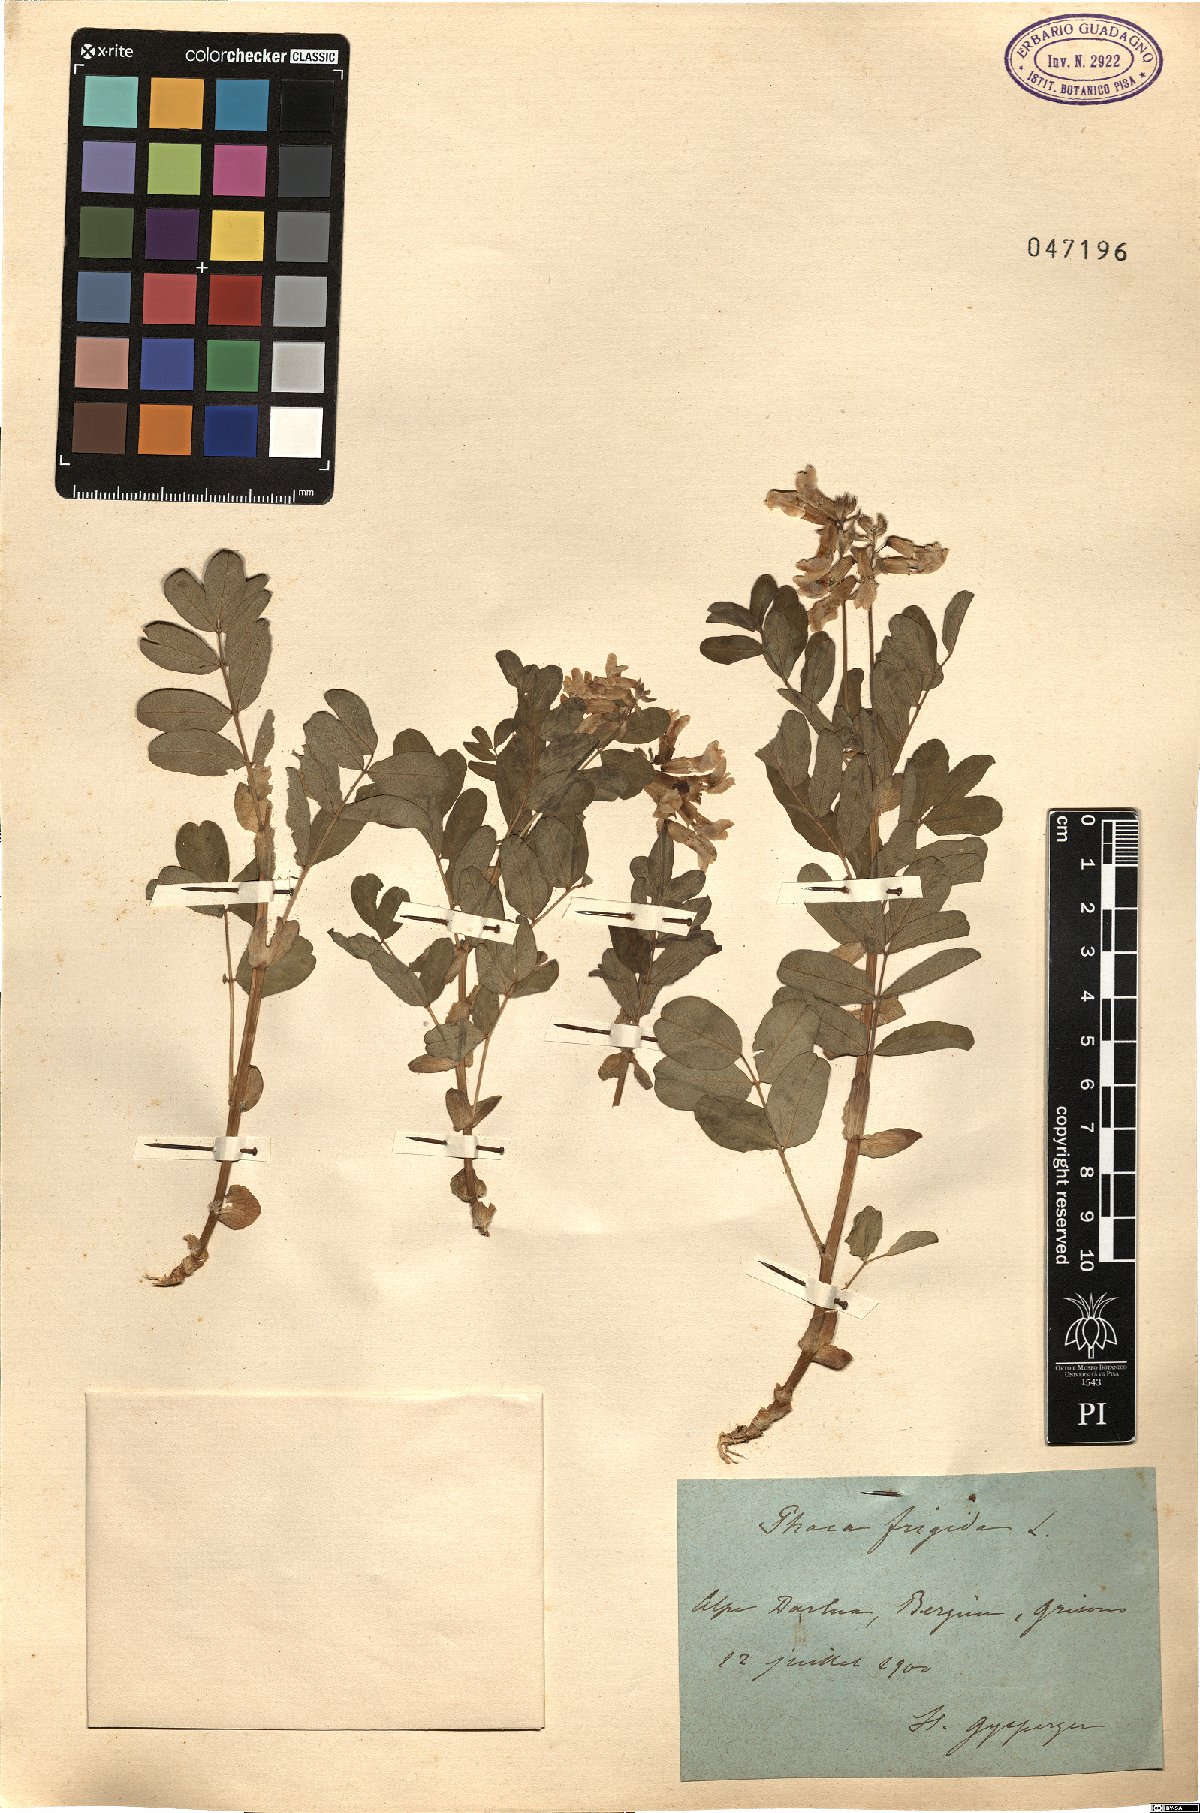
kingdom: Plantae
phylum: Tracheophyta
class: Magnoliopsida
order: Fabales
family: Fabaceae
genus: Astragalus
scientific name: Astragalus frigidus
